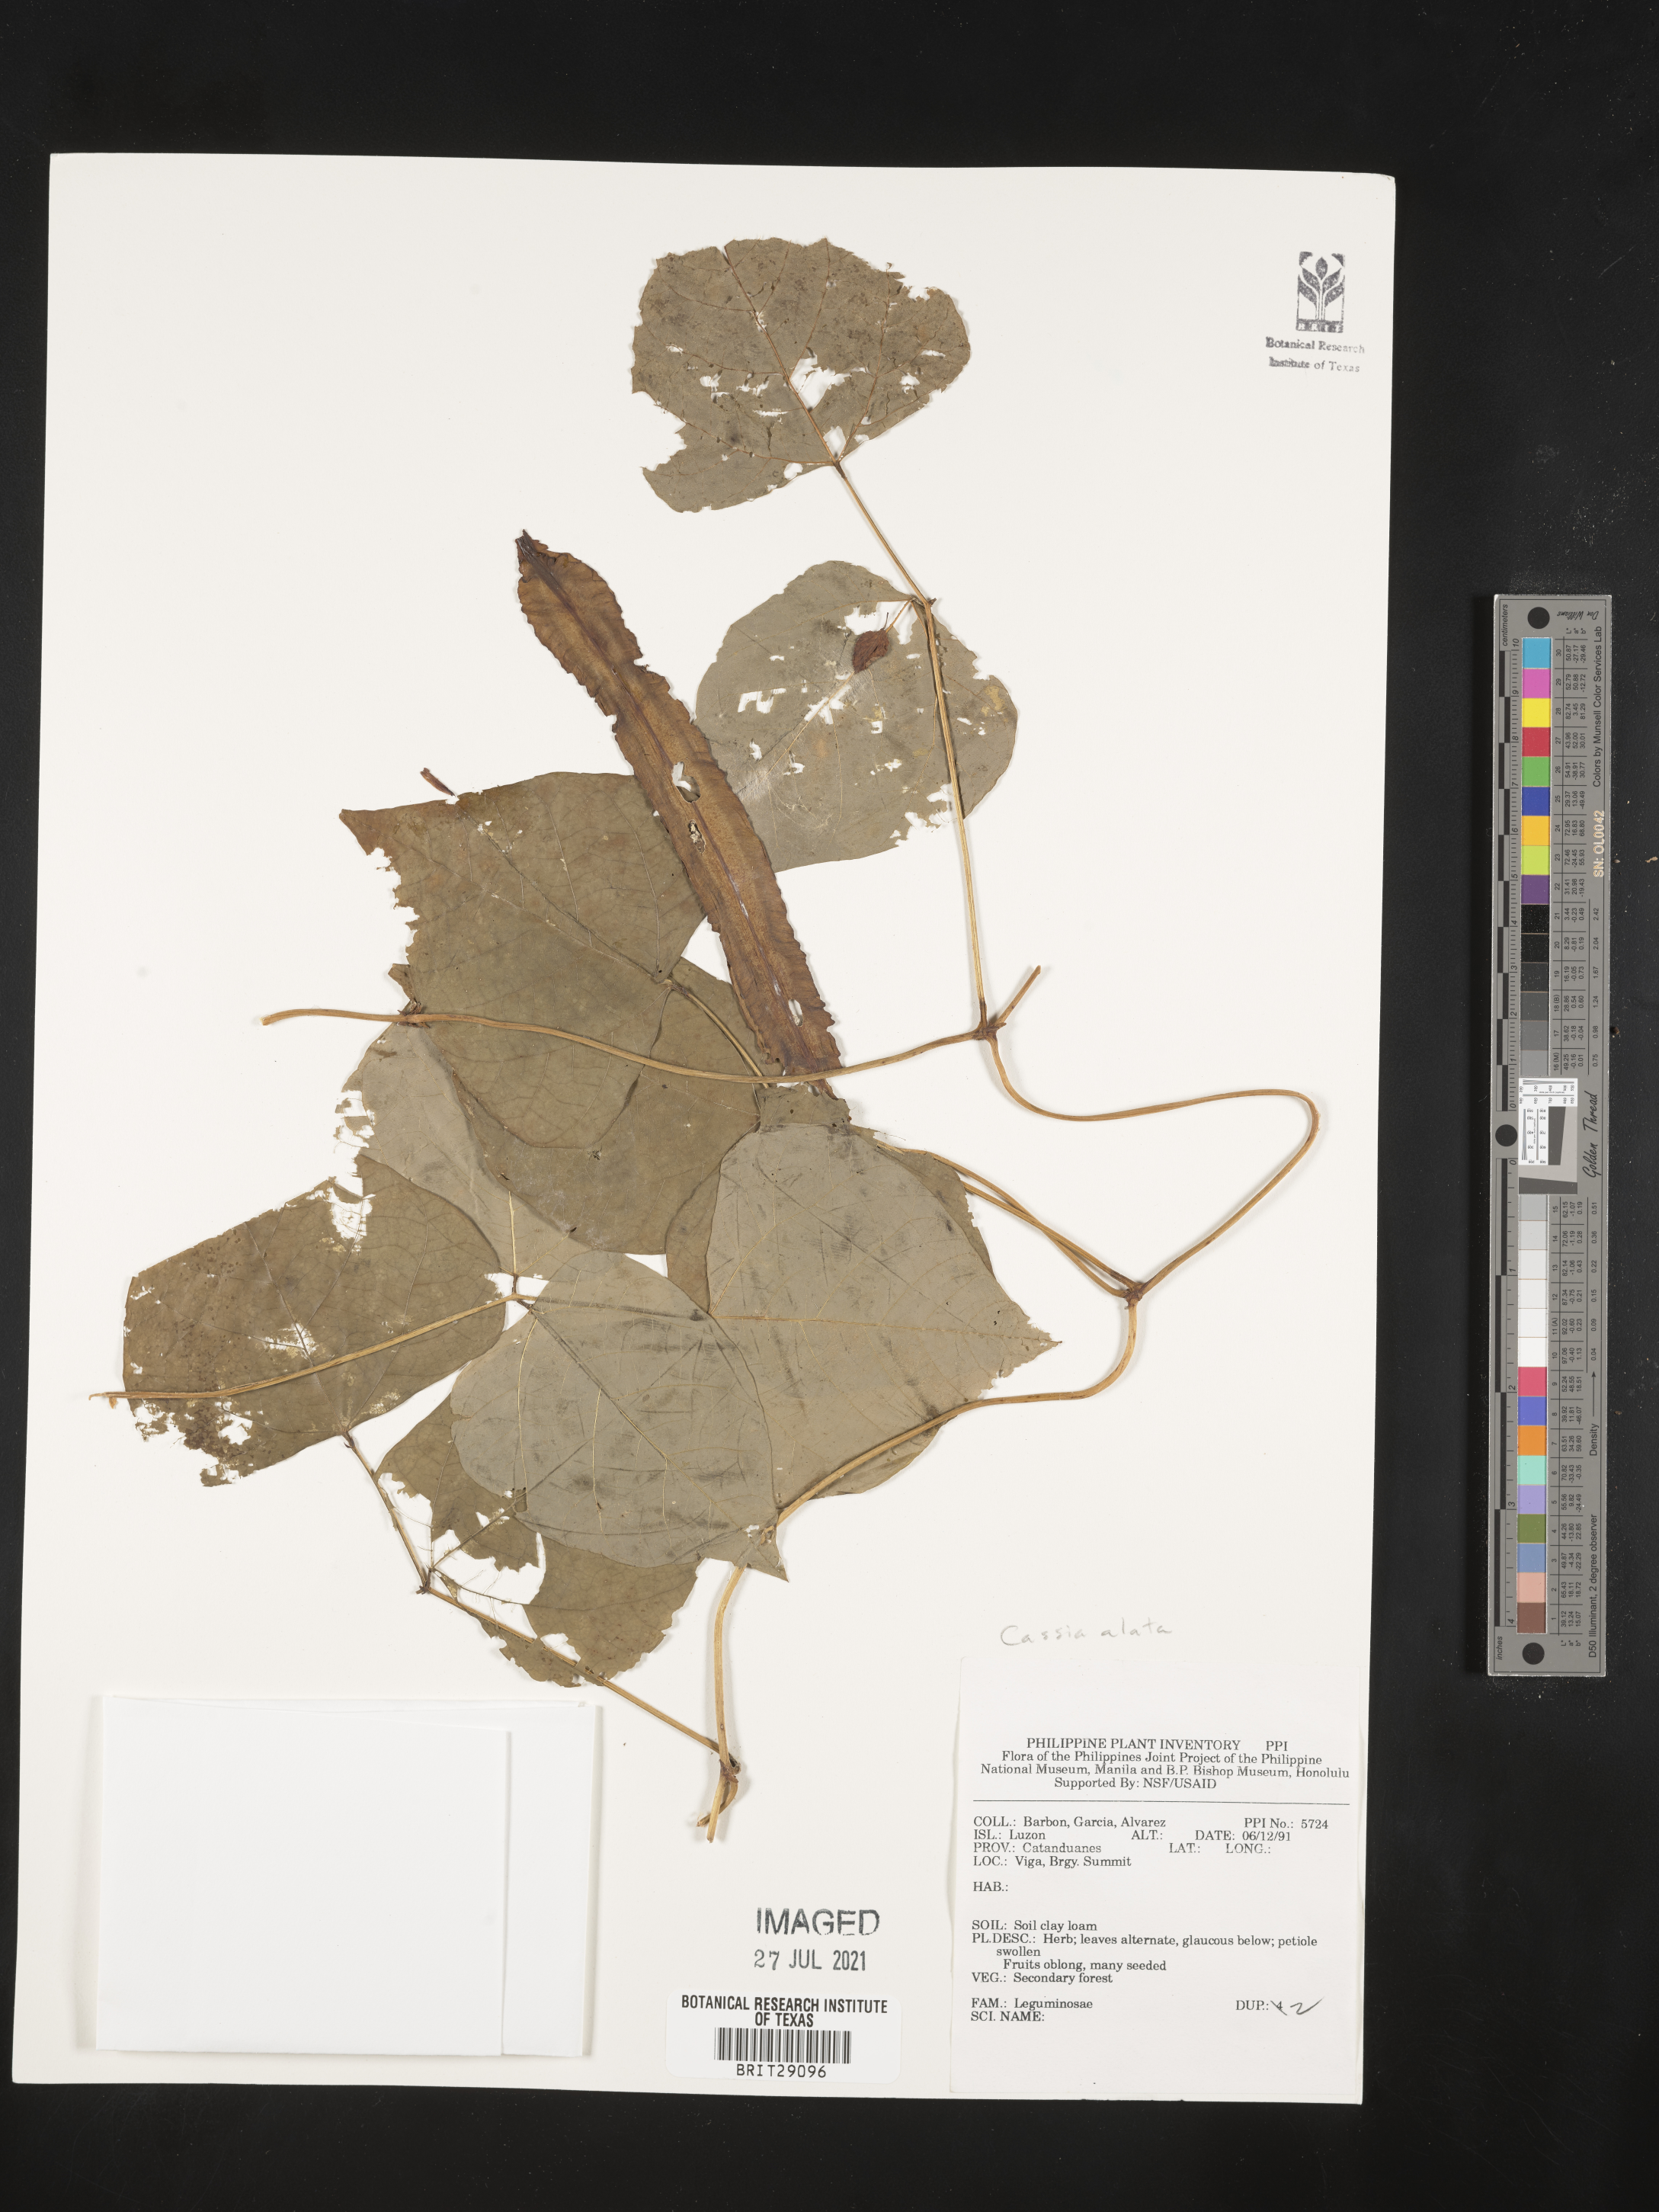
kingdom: Plantae
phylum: Tracheophyta
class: Magnoliopsida
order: Fabales
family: Fabaceae
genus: Senna
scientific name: Senna alata
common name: Emperor's candlesticks
